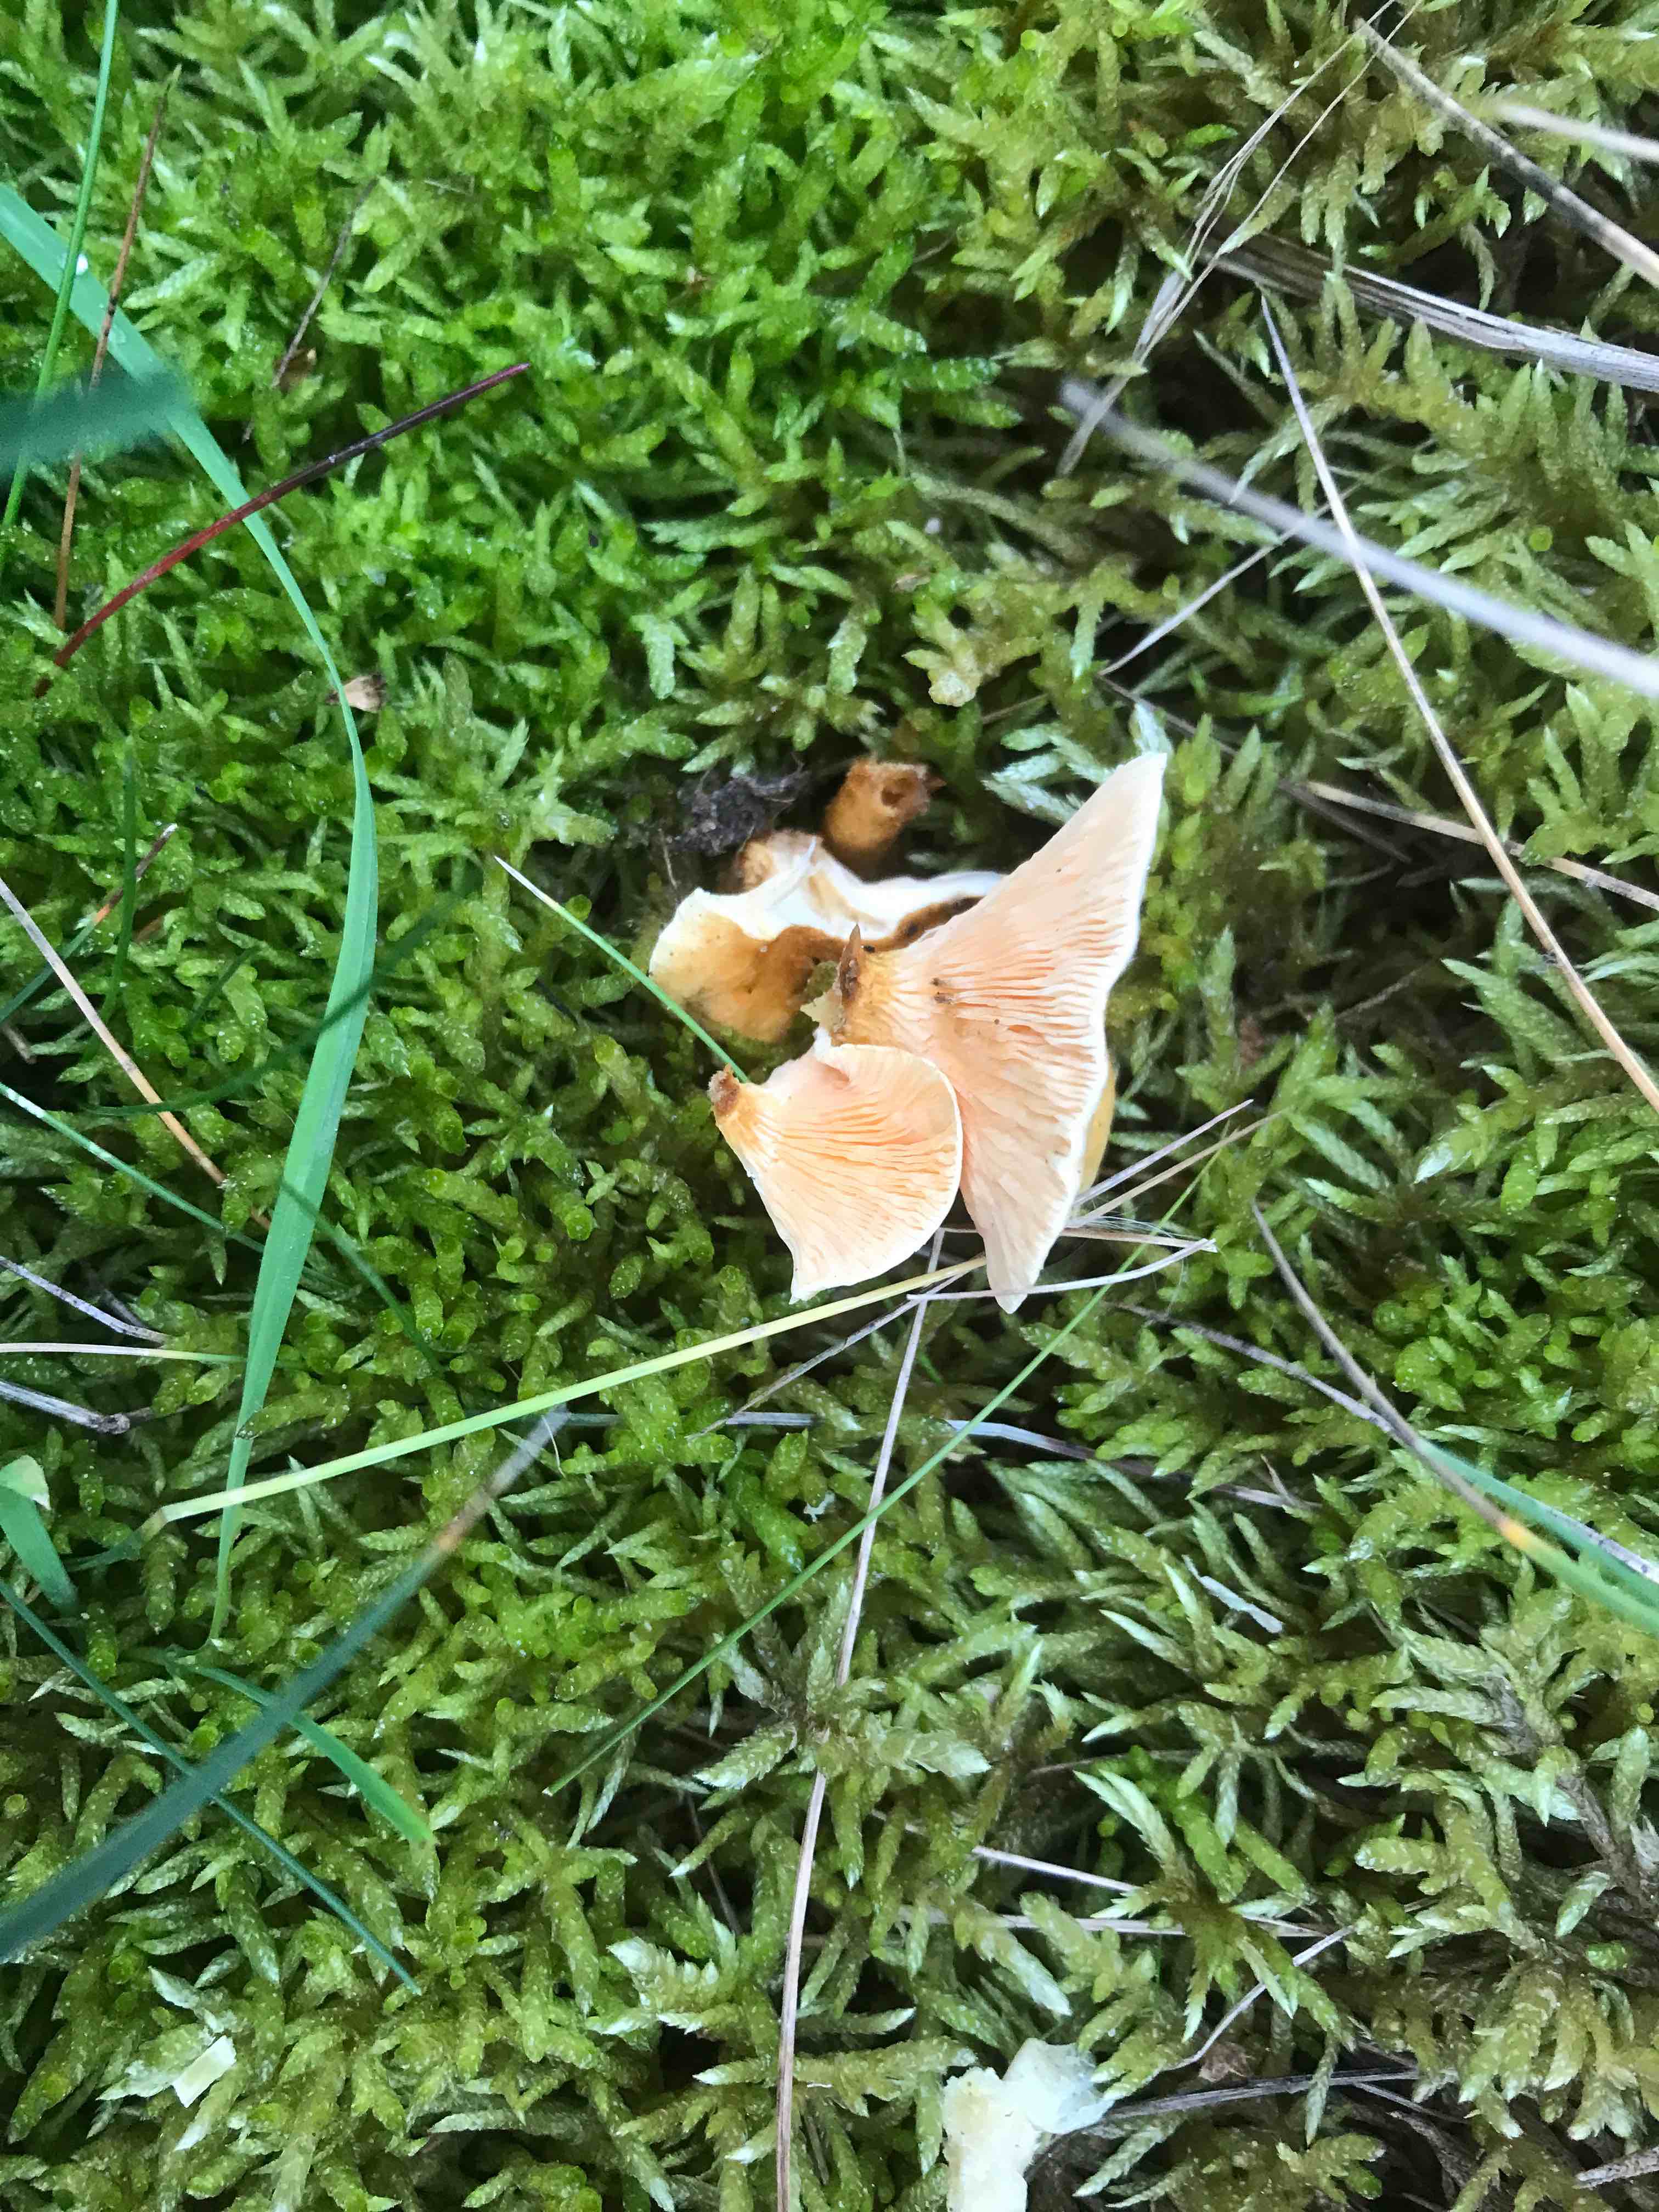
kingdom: Fungi
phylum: Basidiomycota
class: Agaricomycetes
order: Boletales
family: Hygrophoropsidaceae
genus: Hygrophoropsis
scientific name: Hygrophoropsis aurantiaca
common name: almindelig orangekantarel
